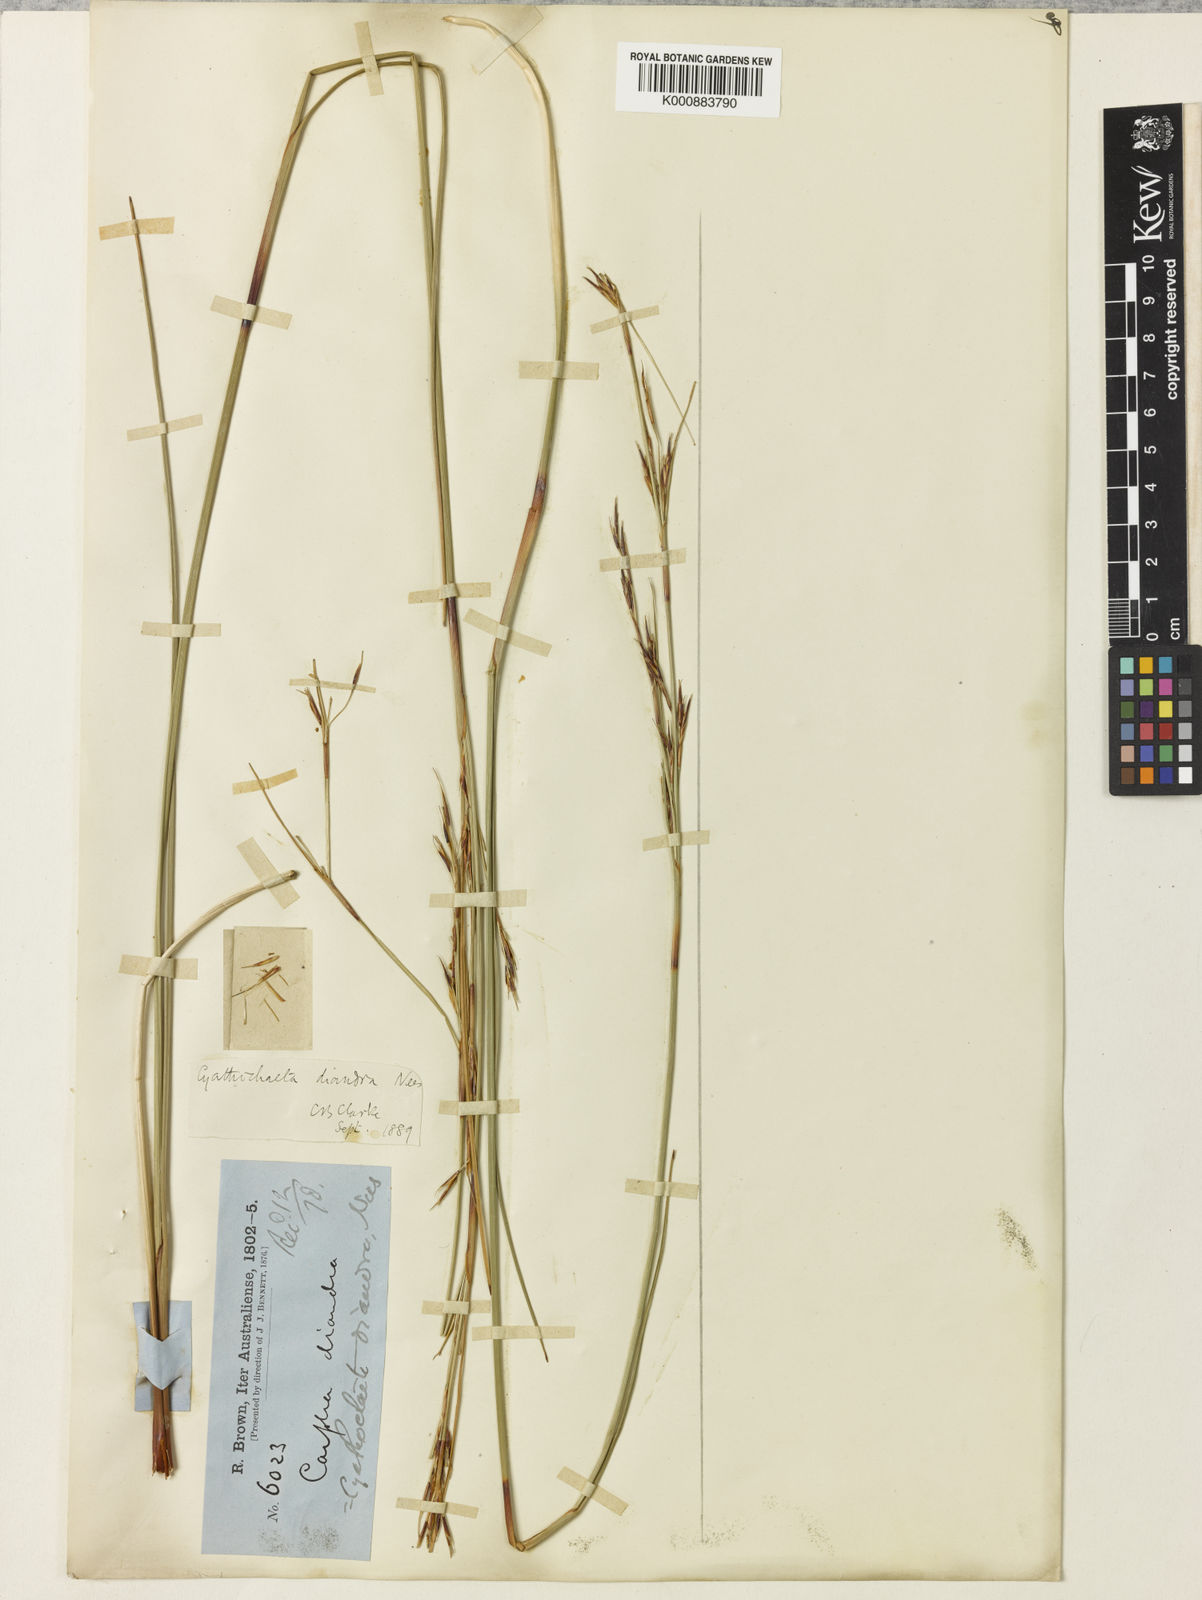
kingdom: Plantae
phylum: Tracheophyta
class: Liliopsida
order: Poales
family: Cyperaceae
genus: Cyathochaeta
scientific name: Cyathochaeta diandra
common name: Sheath rush
